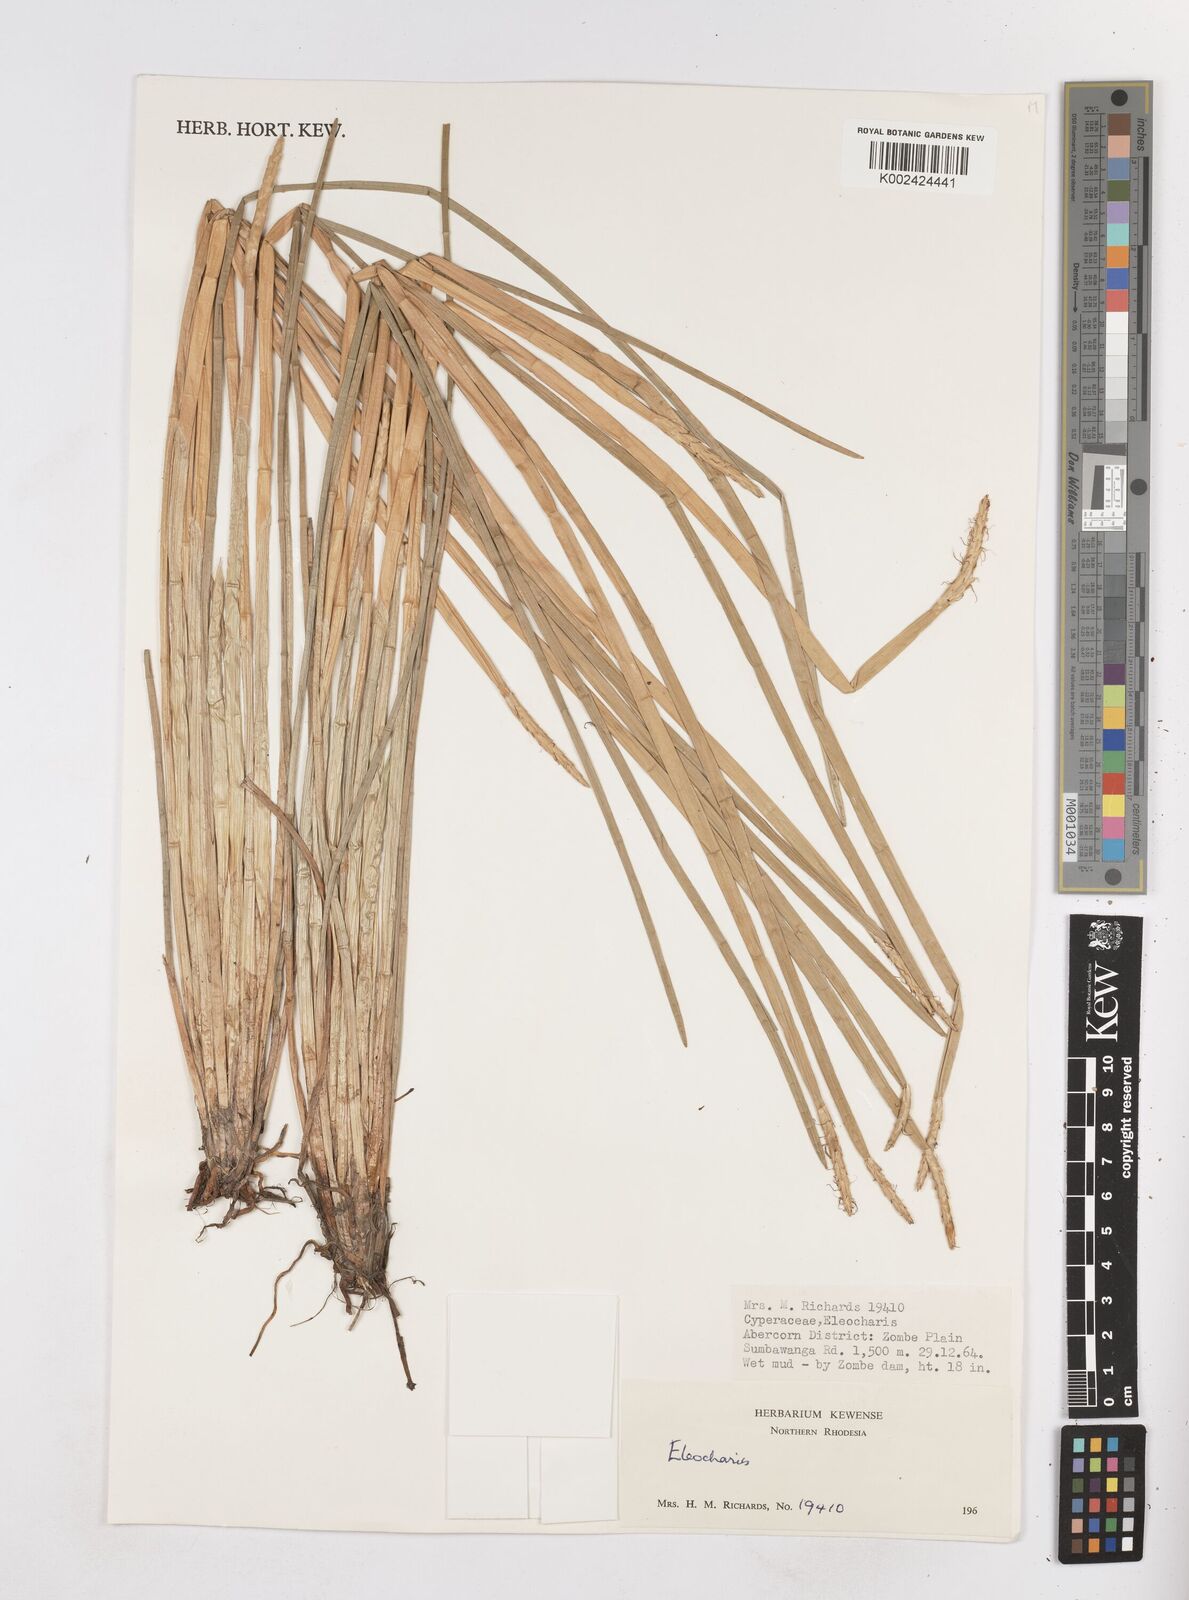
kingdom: Plantae
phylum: Tracheophyta
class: Liliopsida
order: Poales
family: Cyperaceae
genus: Eleocharis
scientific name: Eleocharis
